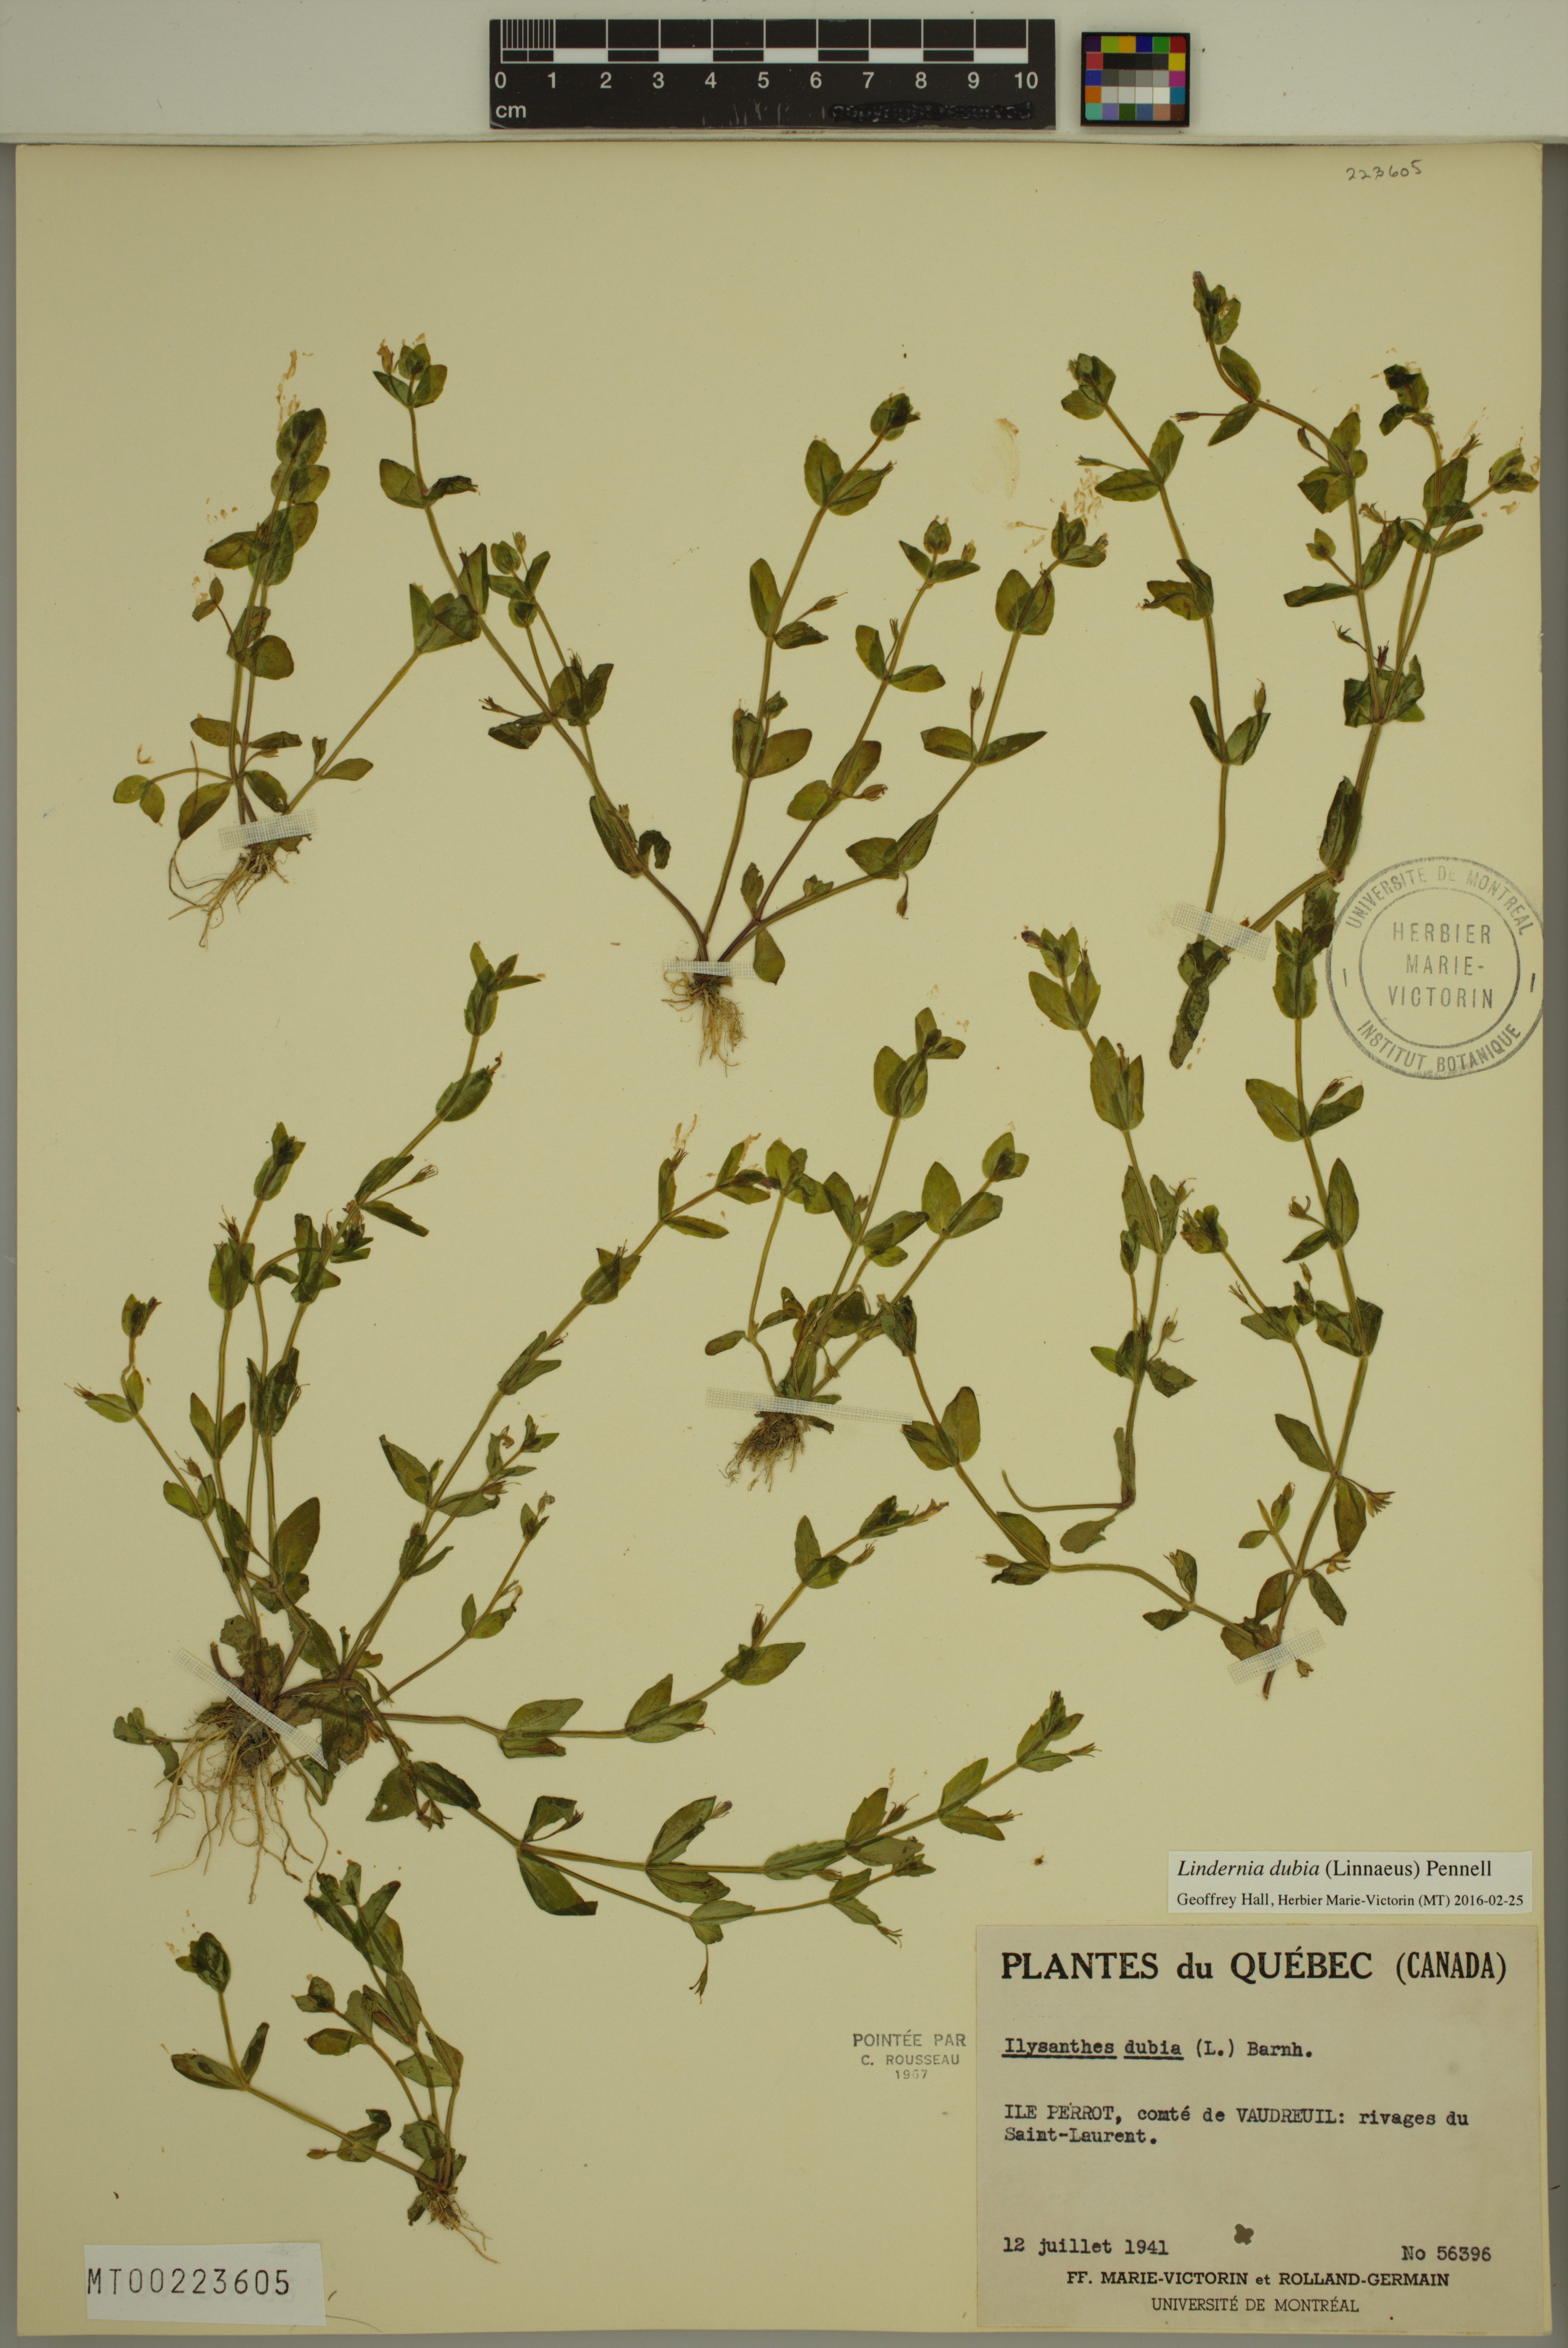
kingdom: Plantae
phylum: Tracheophyta
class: Magnoliopsida
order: Lamiales
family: Linderniaceae
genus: Lindernia
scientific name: Lindernia dubia
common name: Annual false pimpernel
